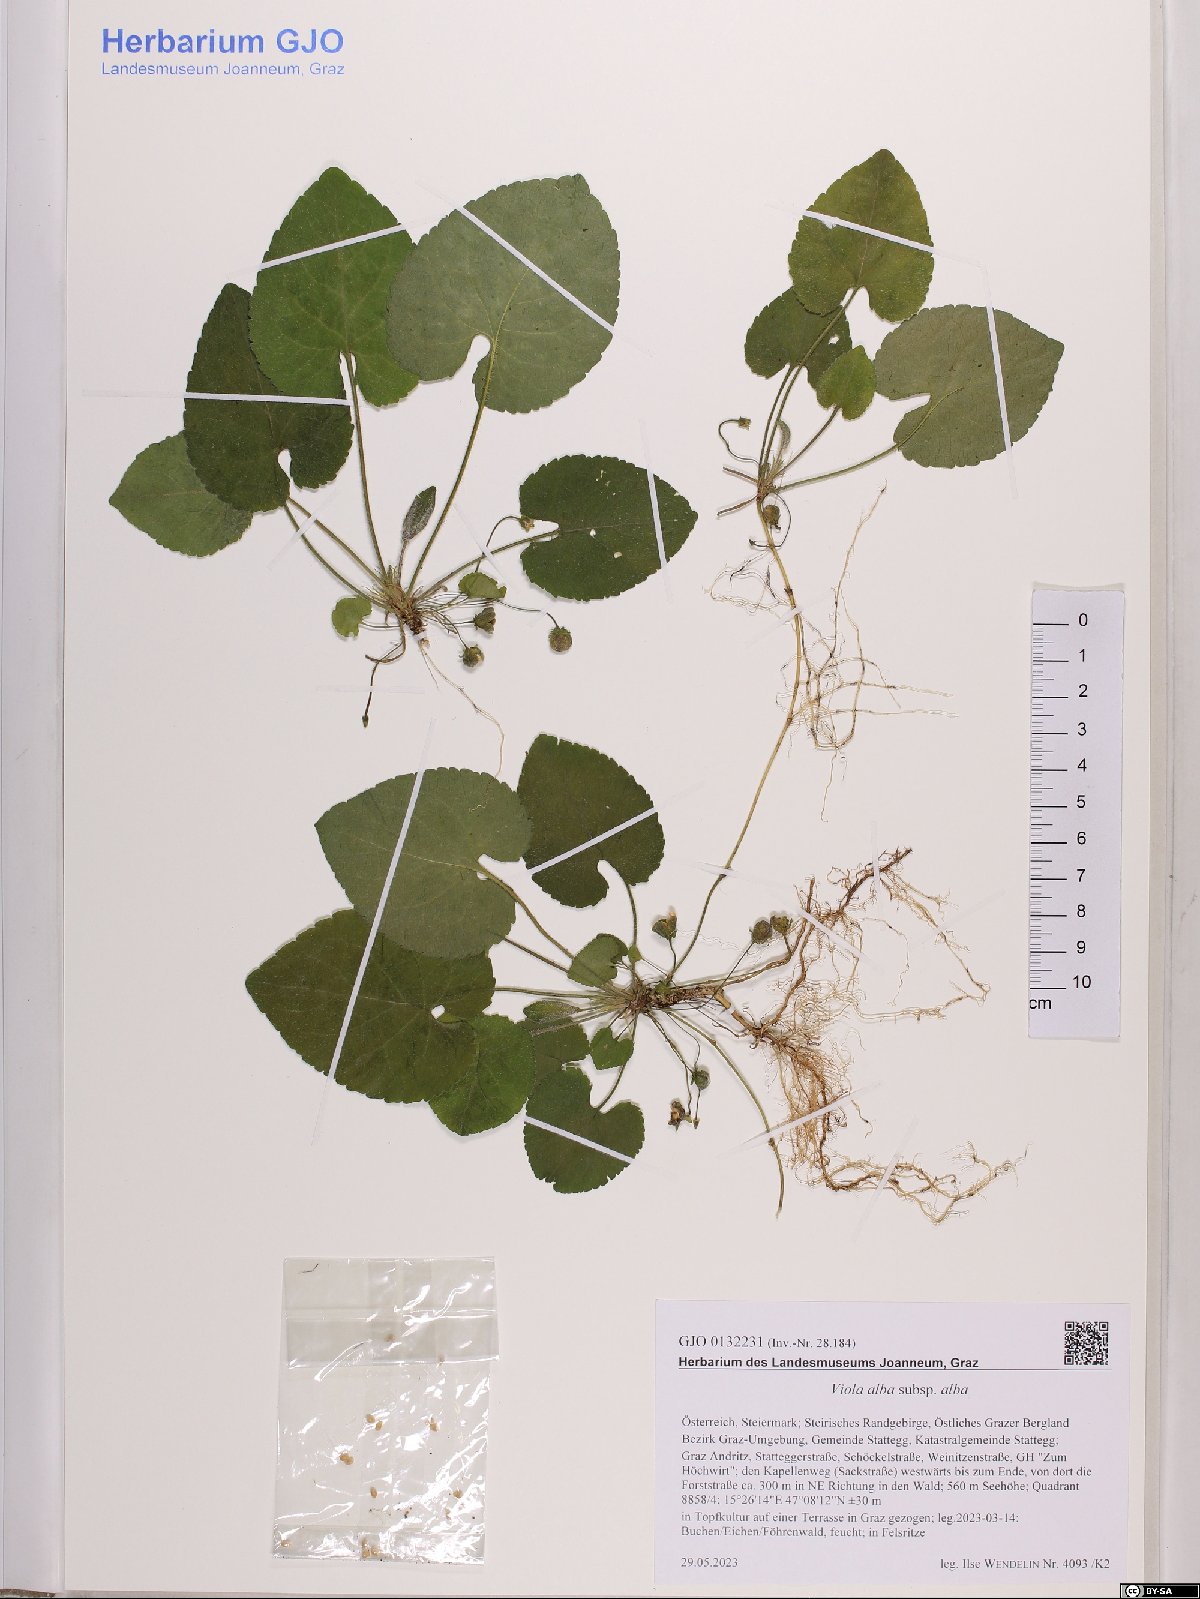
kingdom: Plantae
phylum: Tracheophyta
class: Magnoliopsida
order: Malpighiales
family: Violaceae
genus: Viola
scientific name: Viola alba
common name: White violet
